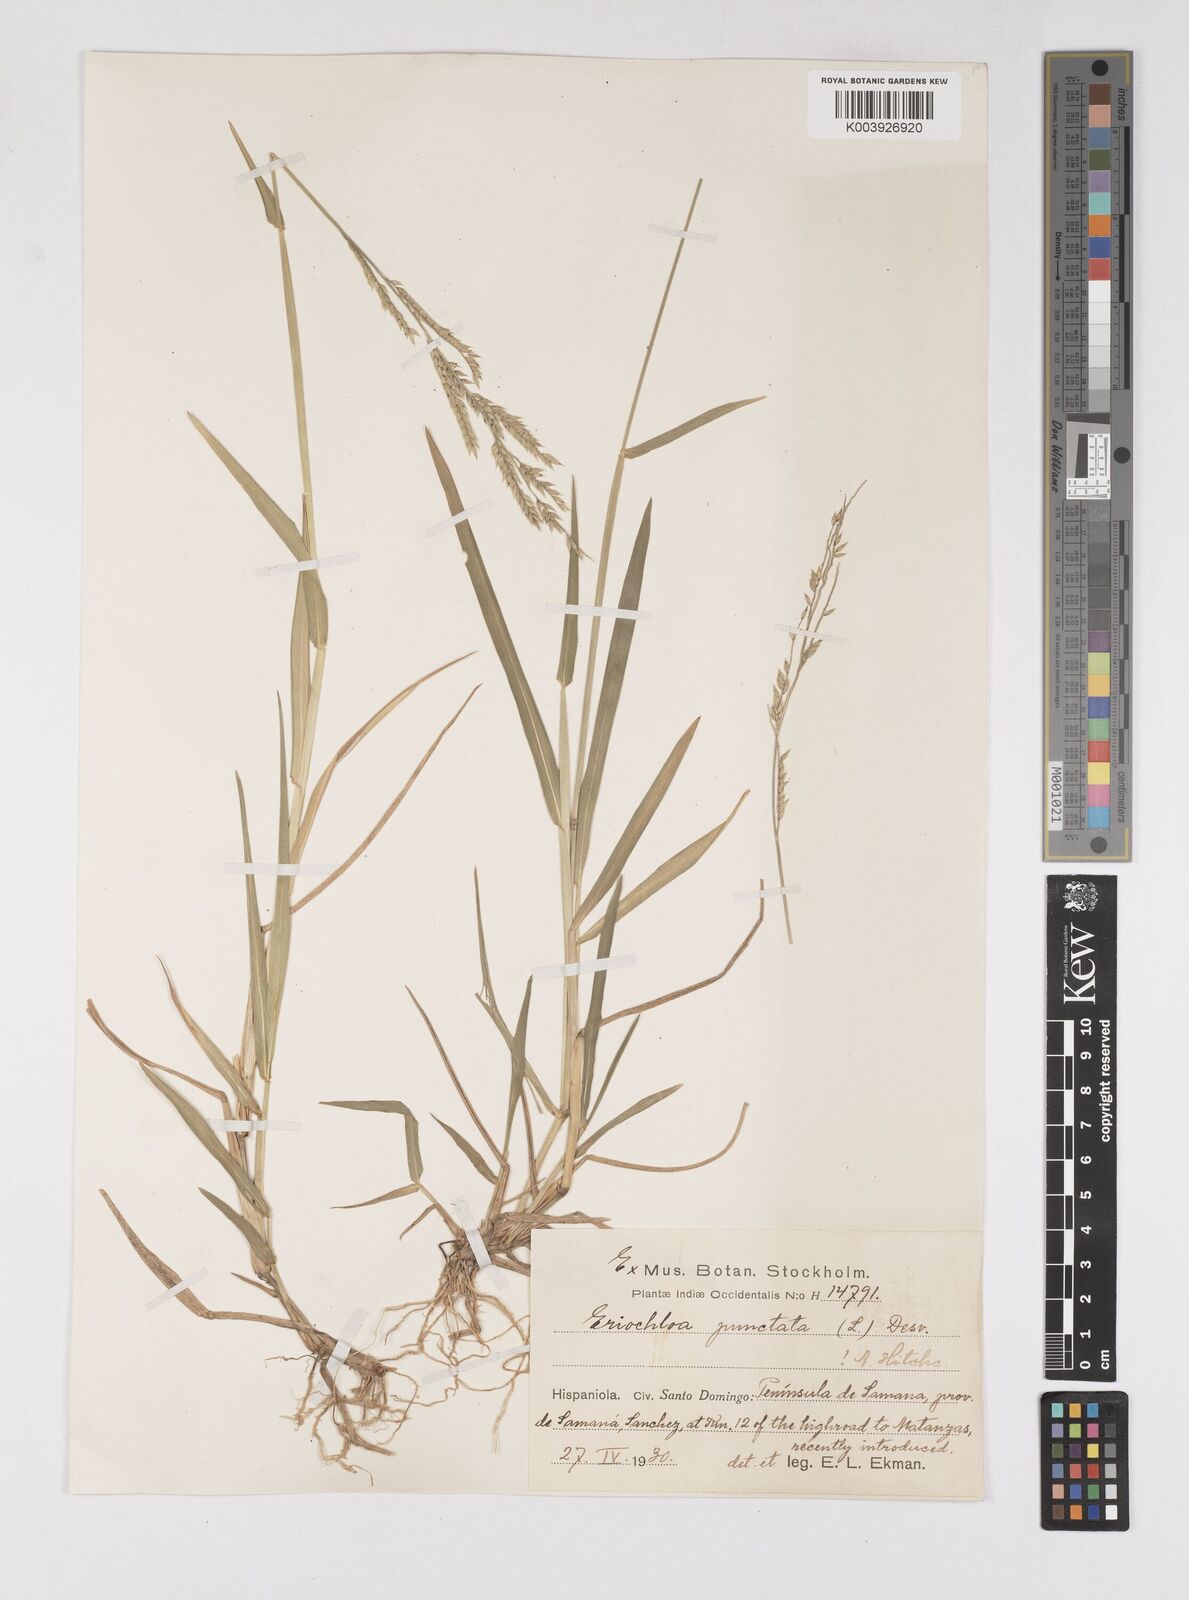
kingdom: Plantae
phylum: Tracheophyta
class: Liliopsida
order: Poales
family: Poaceae
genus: Eriochloa
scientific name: Eriochloa punctata
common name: Louisiana cupgrass
